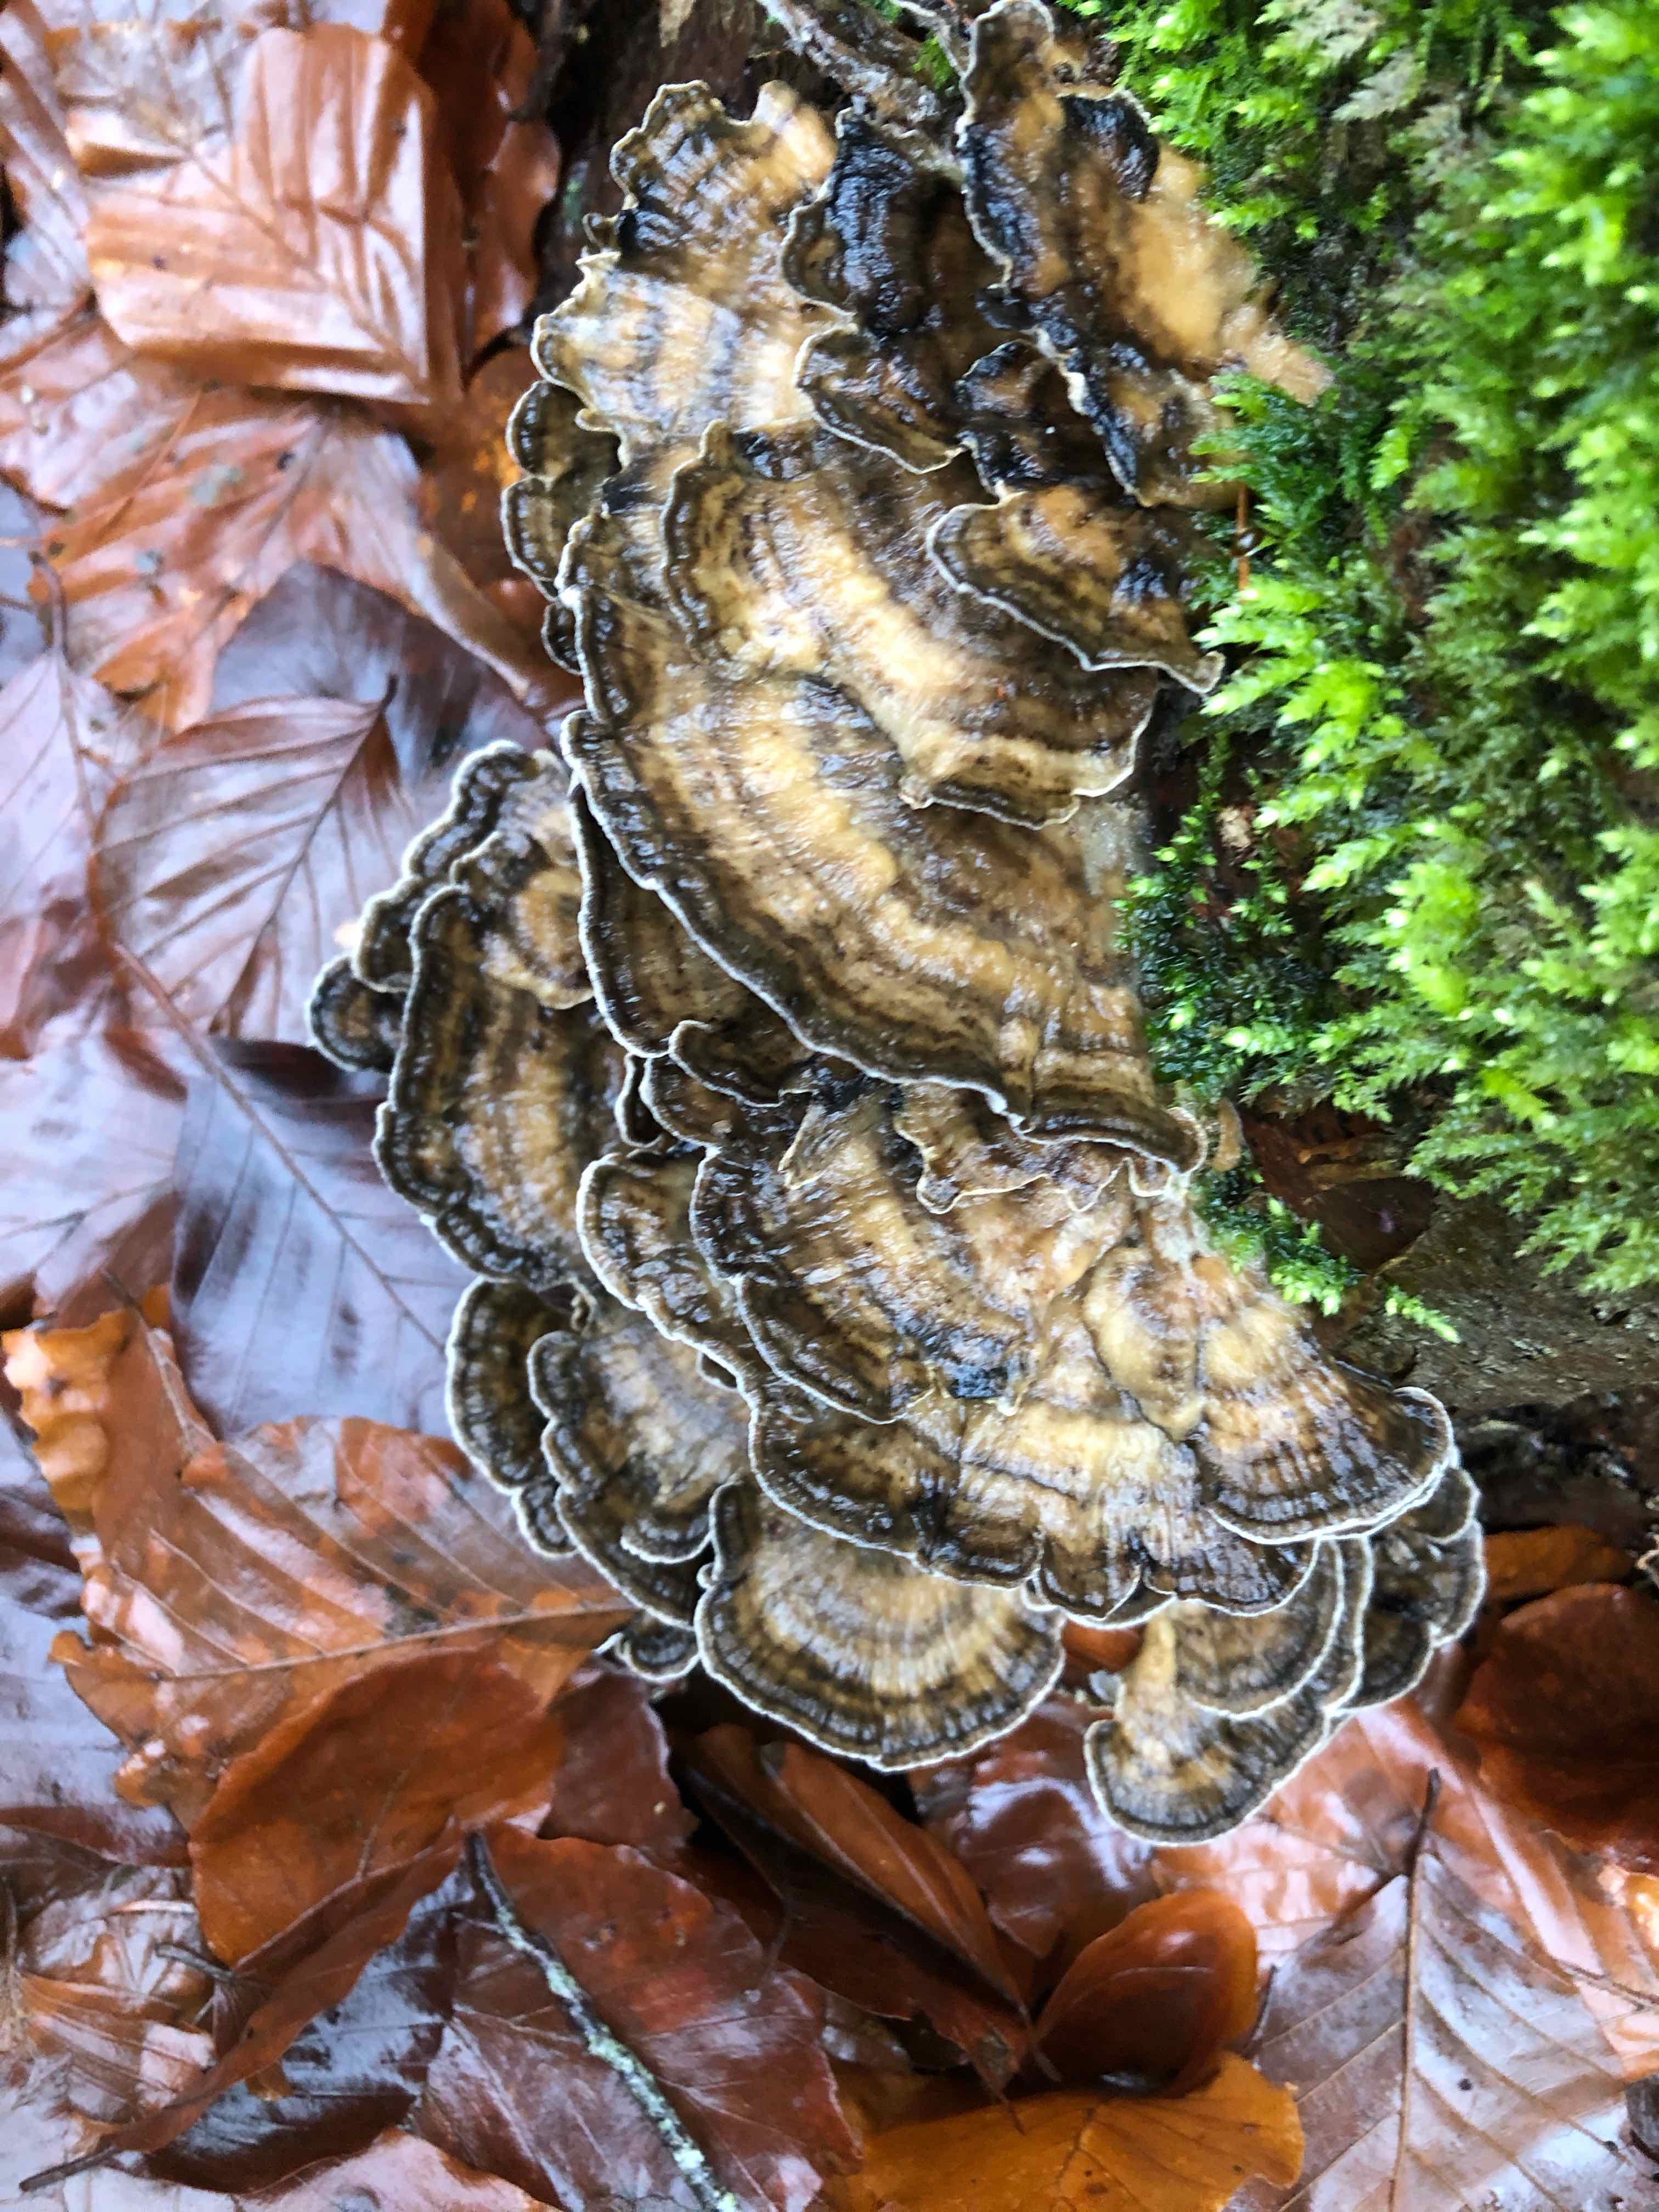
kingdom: Fungi
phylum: Basidiomycota
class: Agaricomycetes
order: Polyporales
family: Phanerochaetaceae
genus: Bjerkandera
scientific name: Bjerkandera adusta
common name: sveden sodporesvamp
